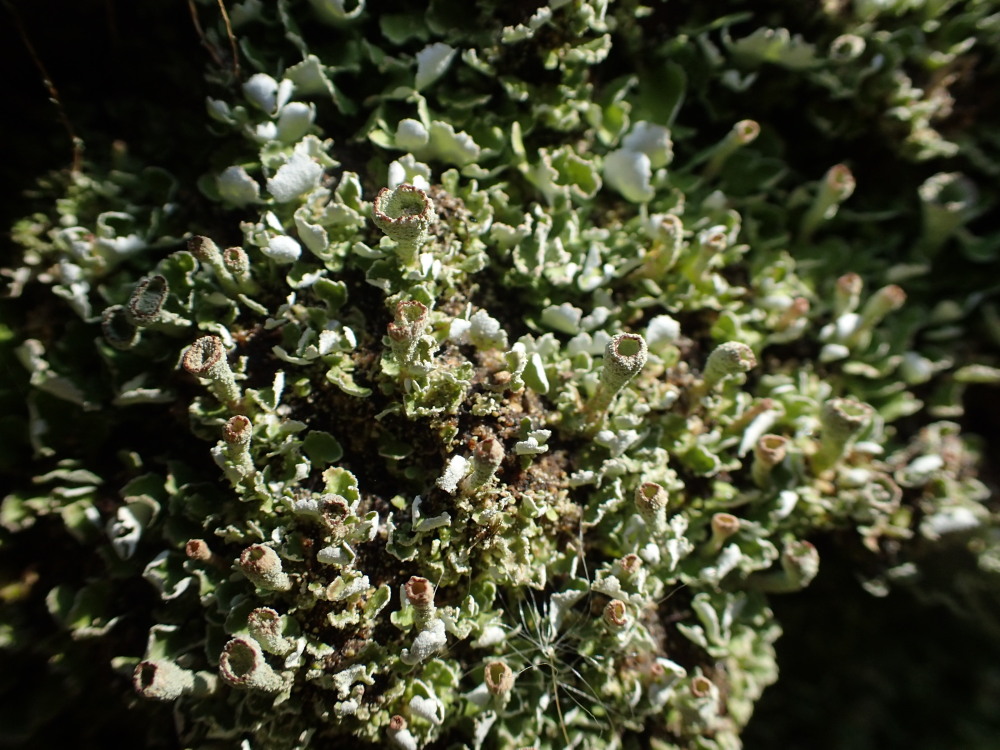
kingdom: Fungi
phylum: Ascomycota
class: Lecanoromycetes
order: Lecanorales
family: Cladoniaceae
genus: Cladonia
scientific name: Cladonia humilis
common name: lav bægerlav
